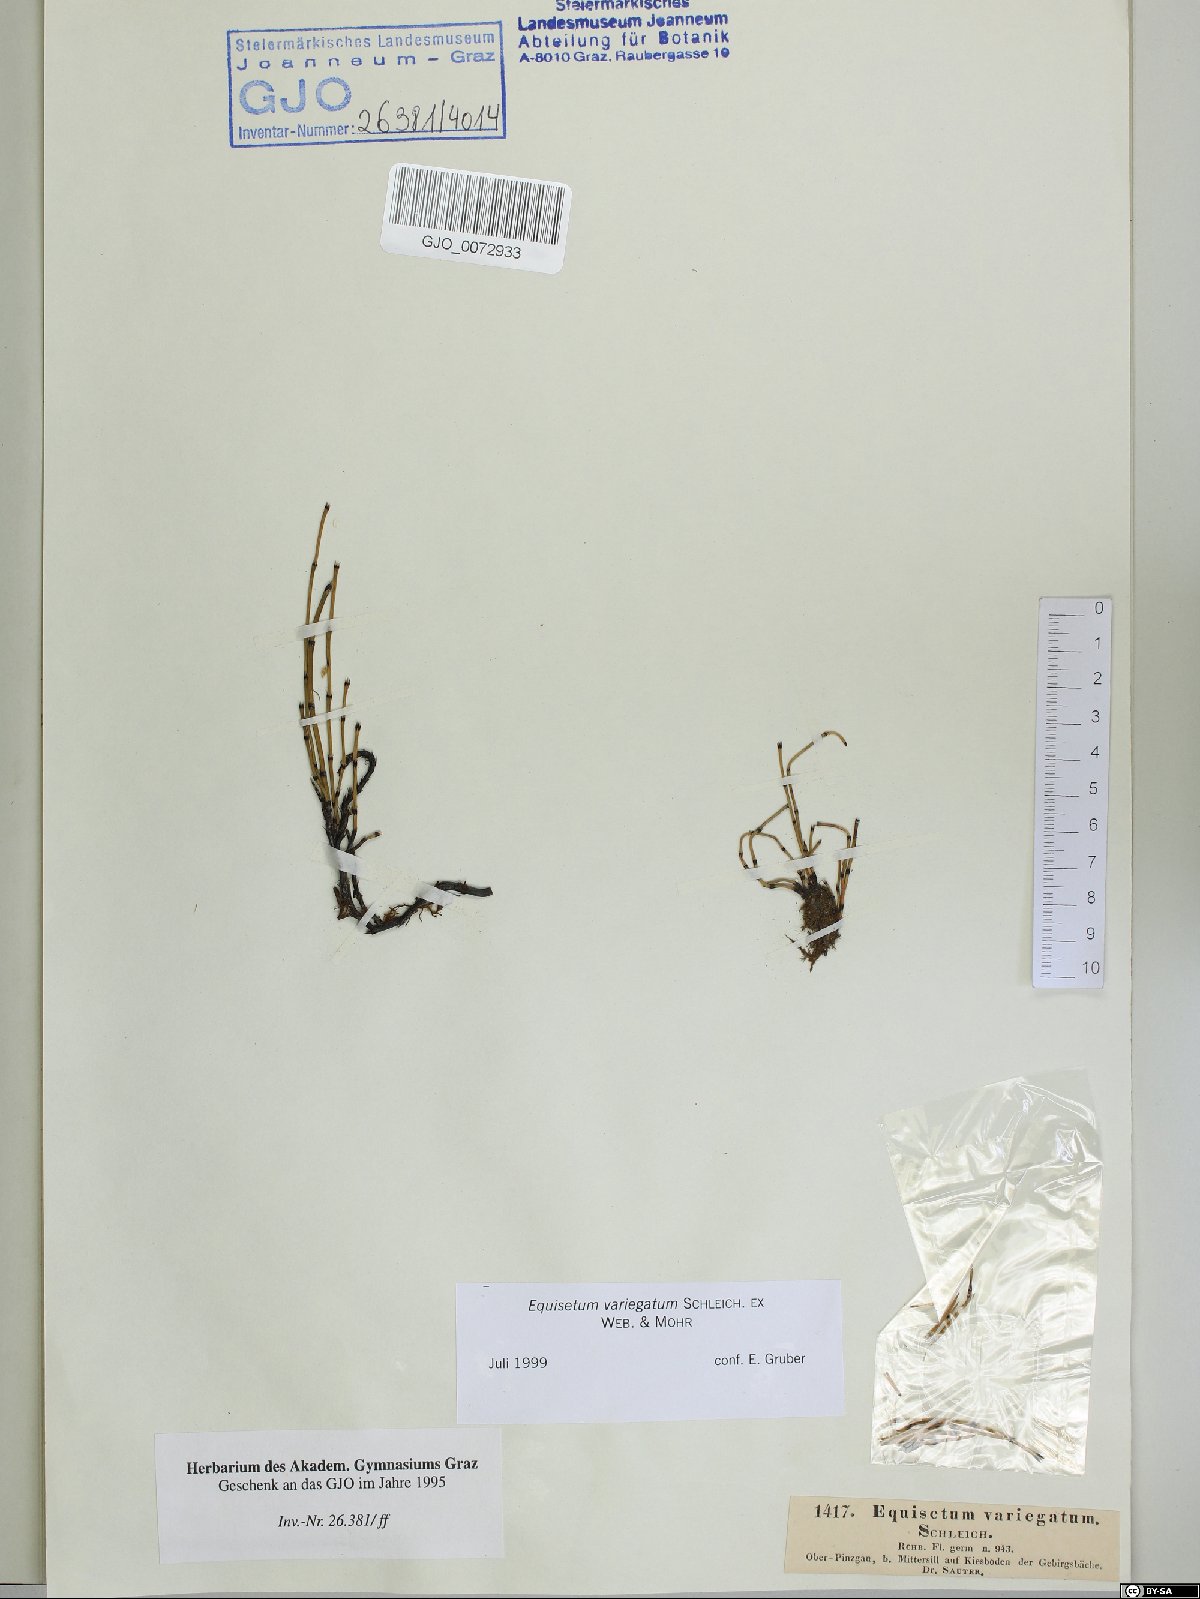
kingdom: Plantae
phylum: Tracheophyta
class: Polypodiopsida
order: Equisetales
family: Equisetaceae
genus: Equisetum
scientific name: Equisetum variegatum
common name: Variegated horsetail
